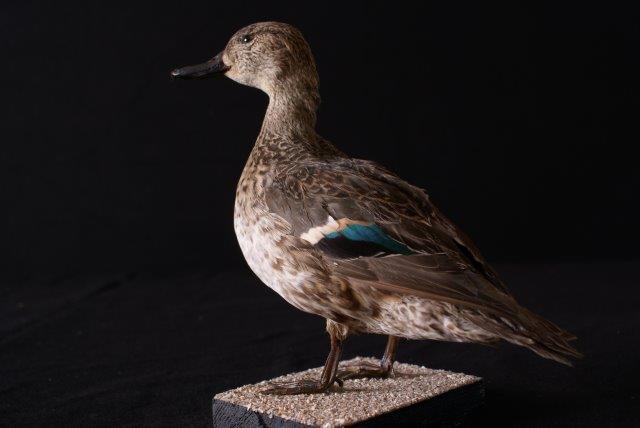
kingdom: Animalia
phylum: Chordata
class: Aves
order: Anseriformes
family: Anatidae
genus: Anas
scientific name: Anas crecca
